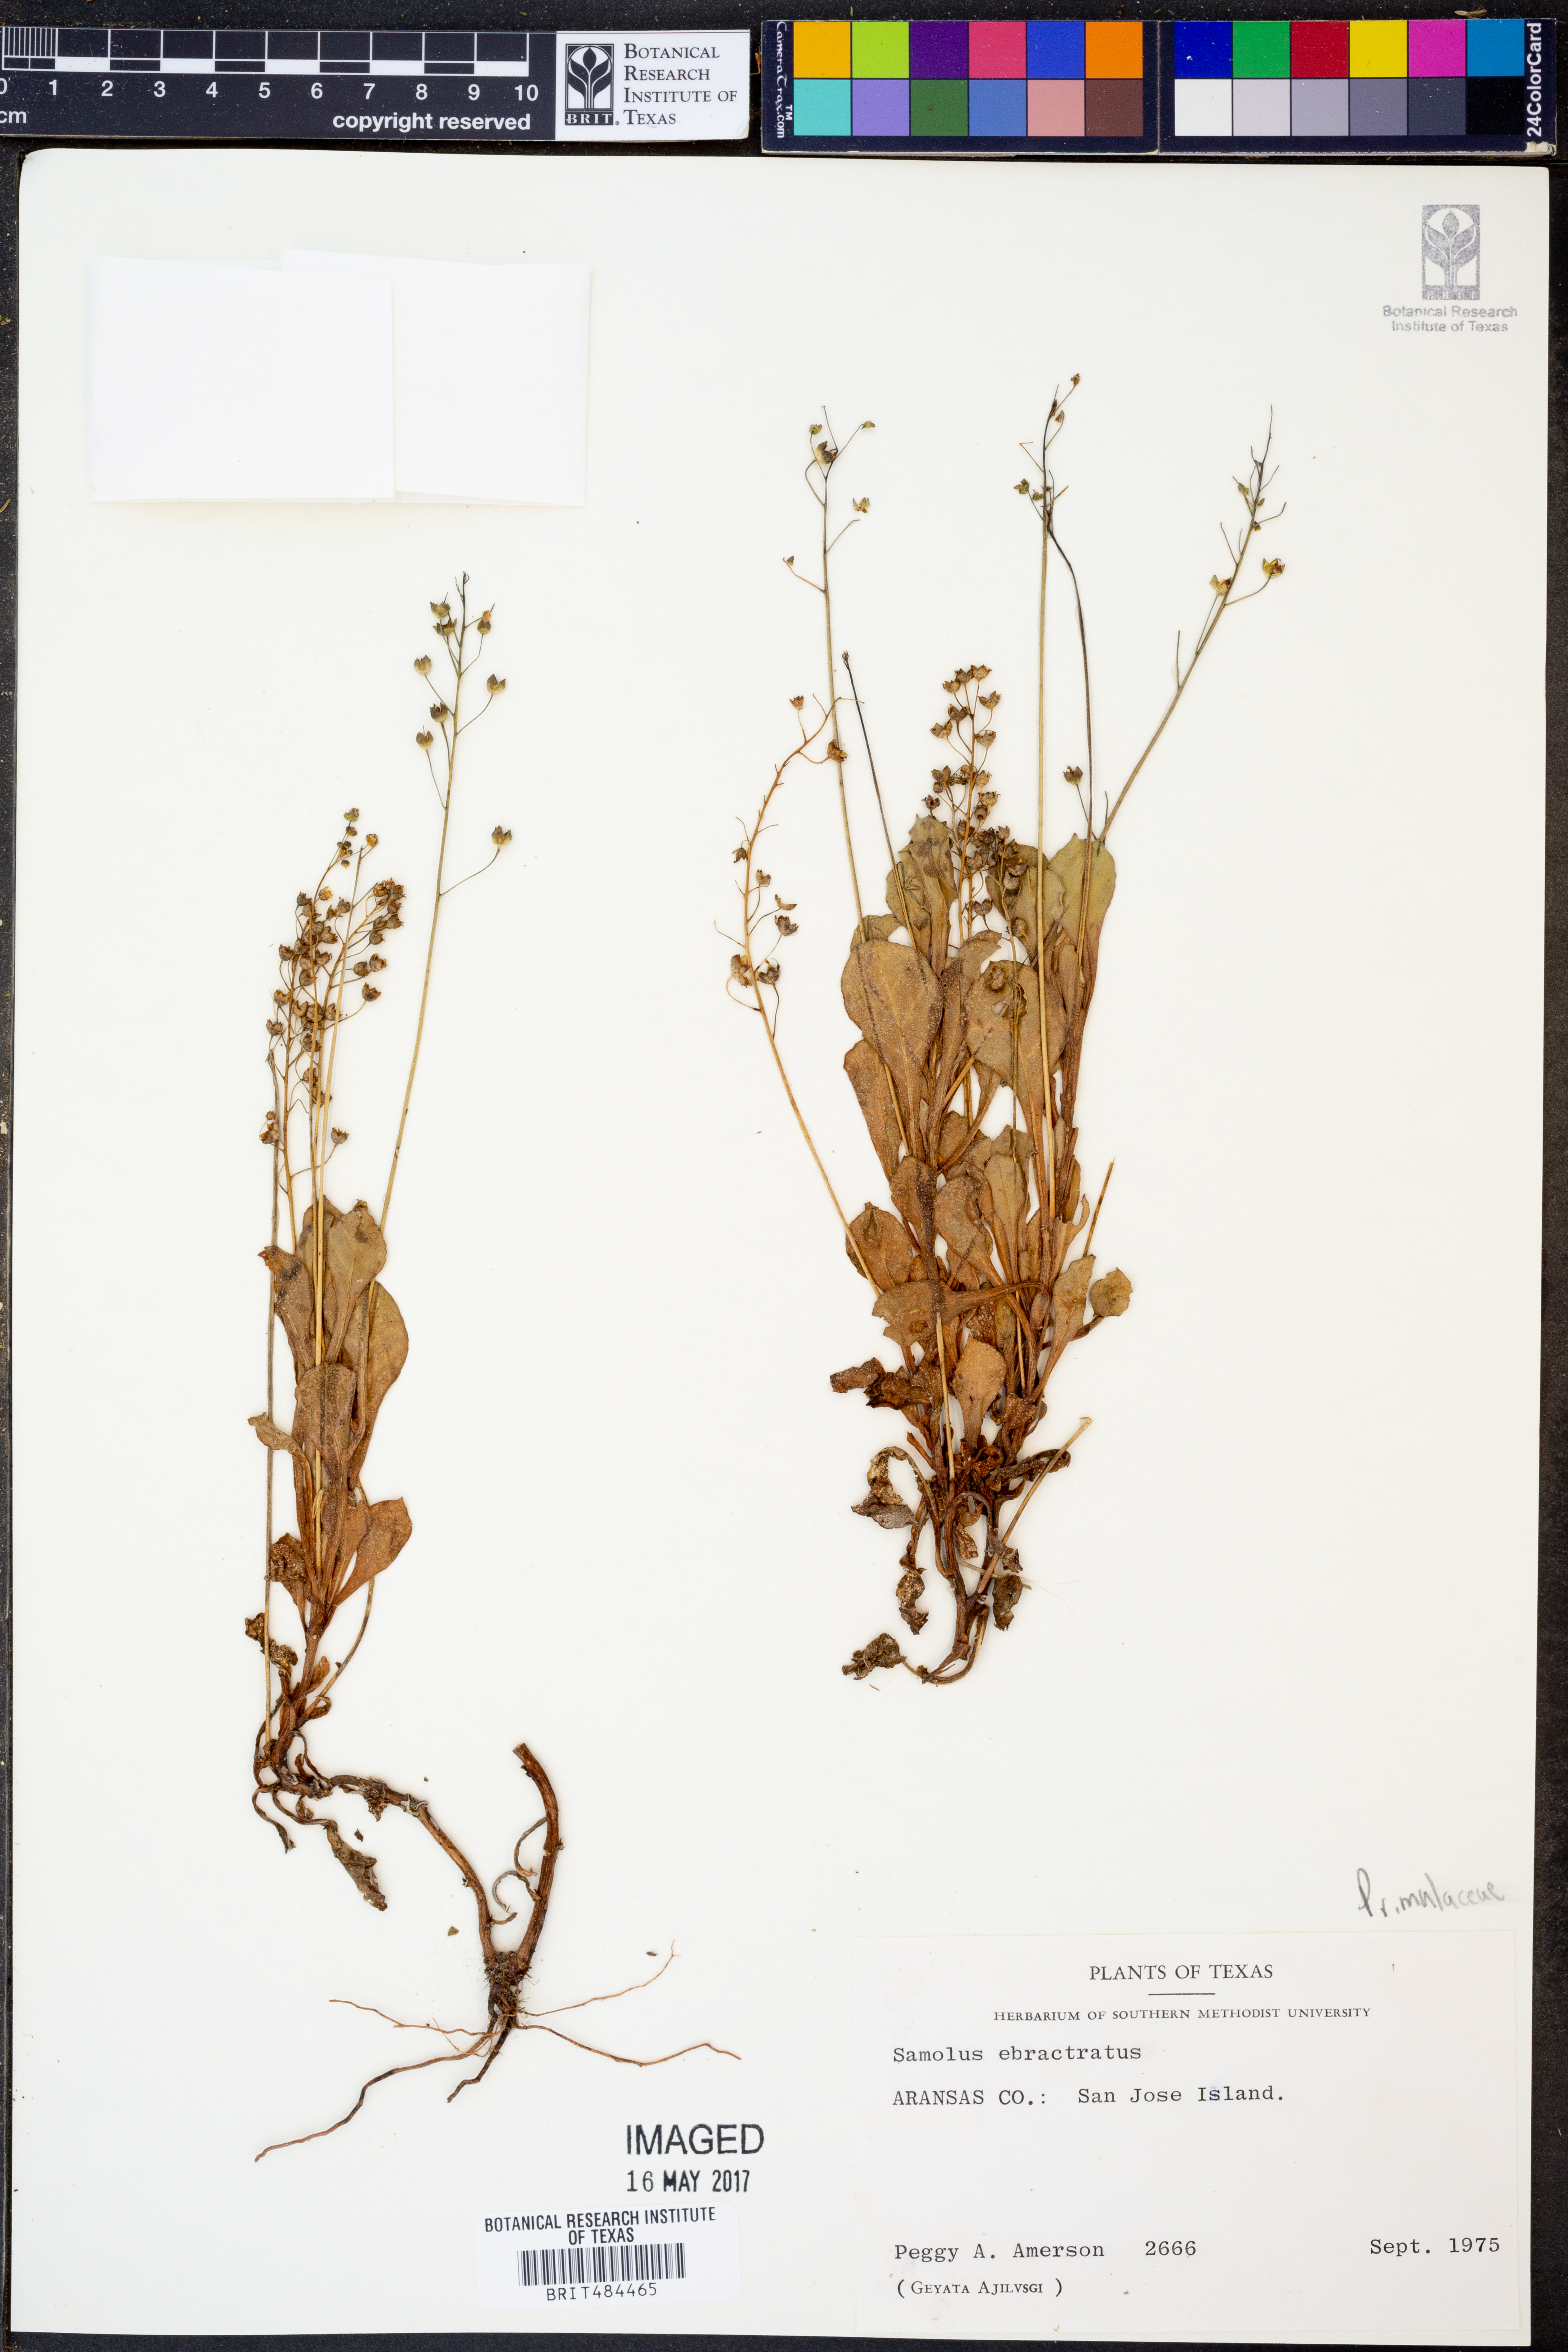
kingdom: Plantae
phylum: Tracheophyta
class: Magnoliopsida
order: Ericales
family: Primulaceae
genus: Samolus
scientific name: Samolus ebracteatus
